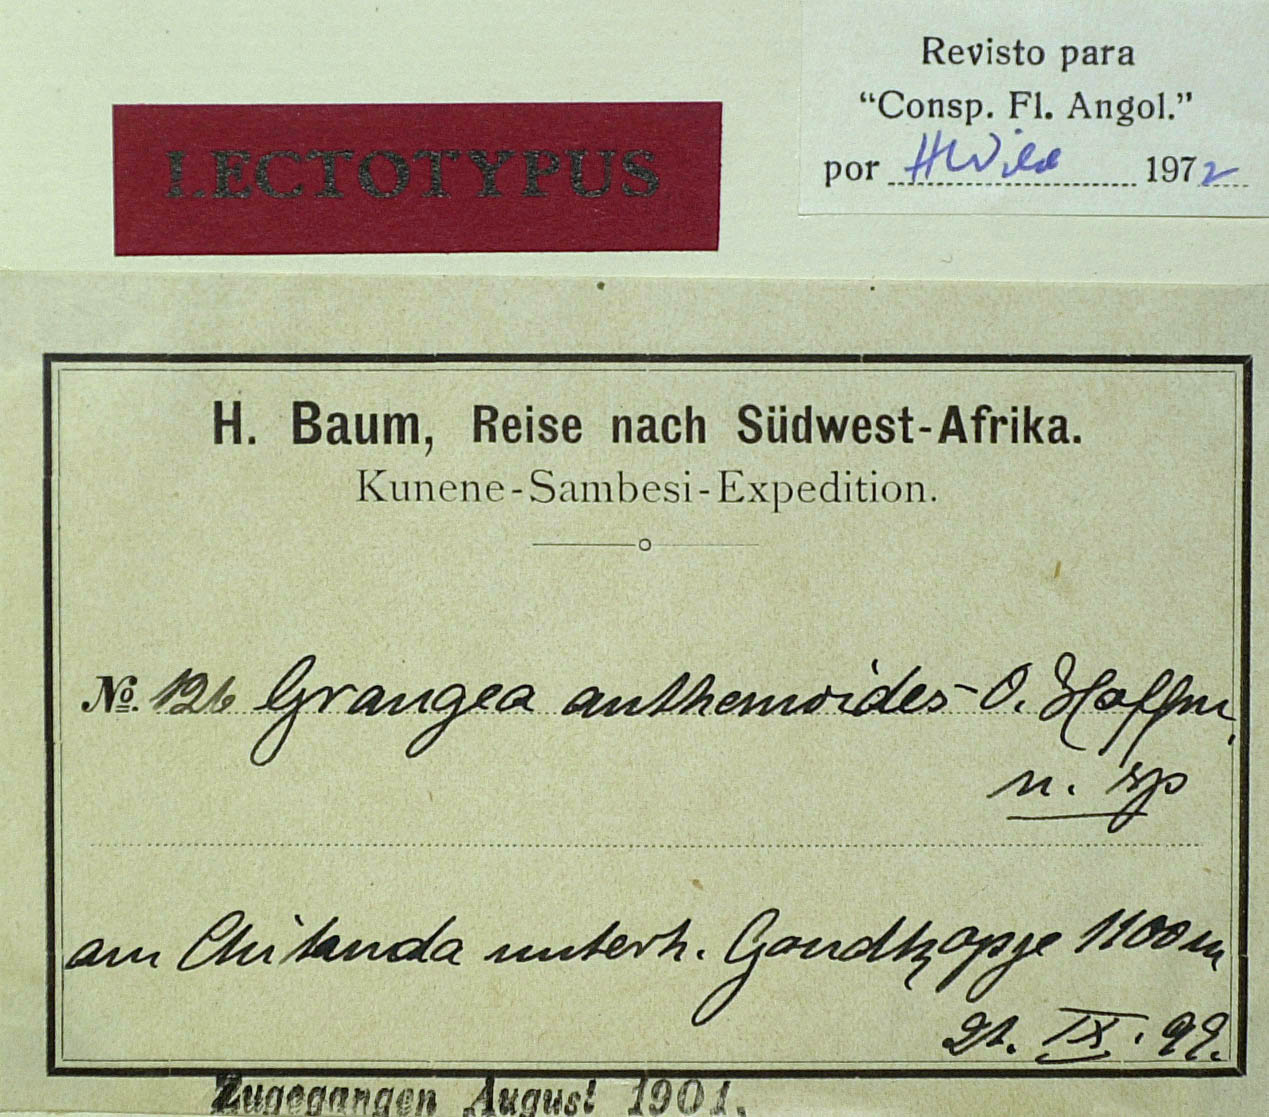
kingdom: Plantae
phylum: Tracheophyta
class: Magnoliopsida
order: Asterales
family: Asteraceae
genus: Grangea
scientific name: Grangea anthemoides
